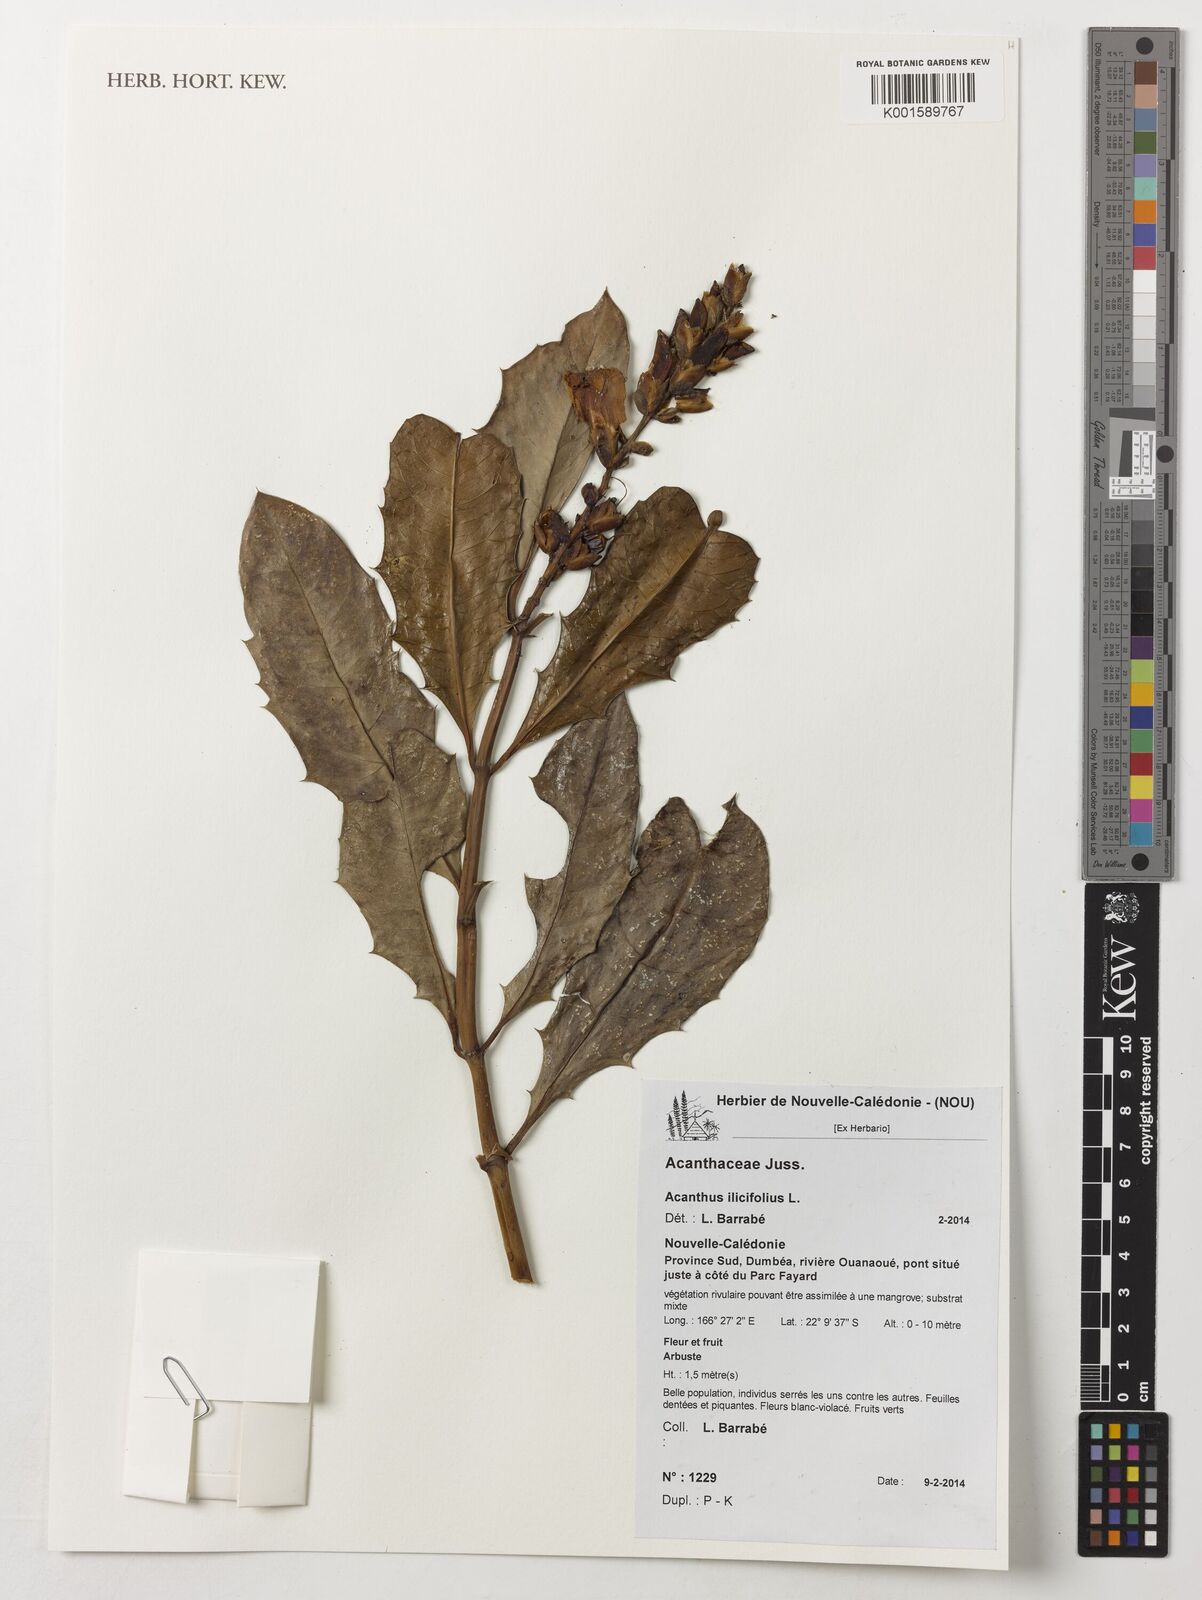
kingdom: Plantae
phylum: Tracheophyta
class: Magnoliopsida
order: Lamiales
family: Acanthaceae
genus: Acanthus
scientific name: Acanthus ilicifolius
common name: Holy mangrove
